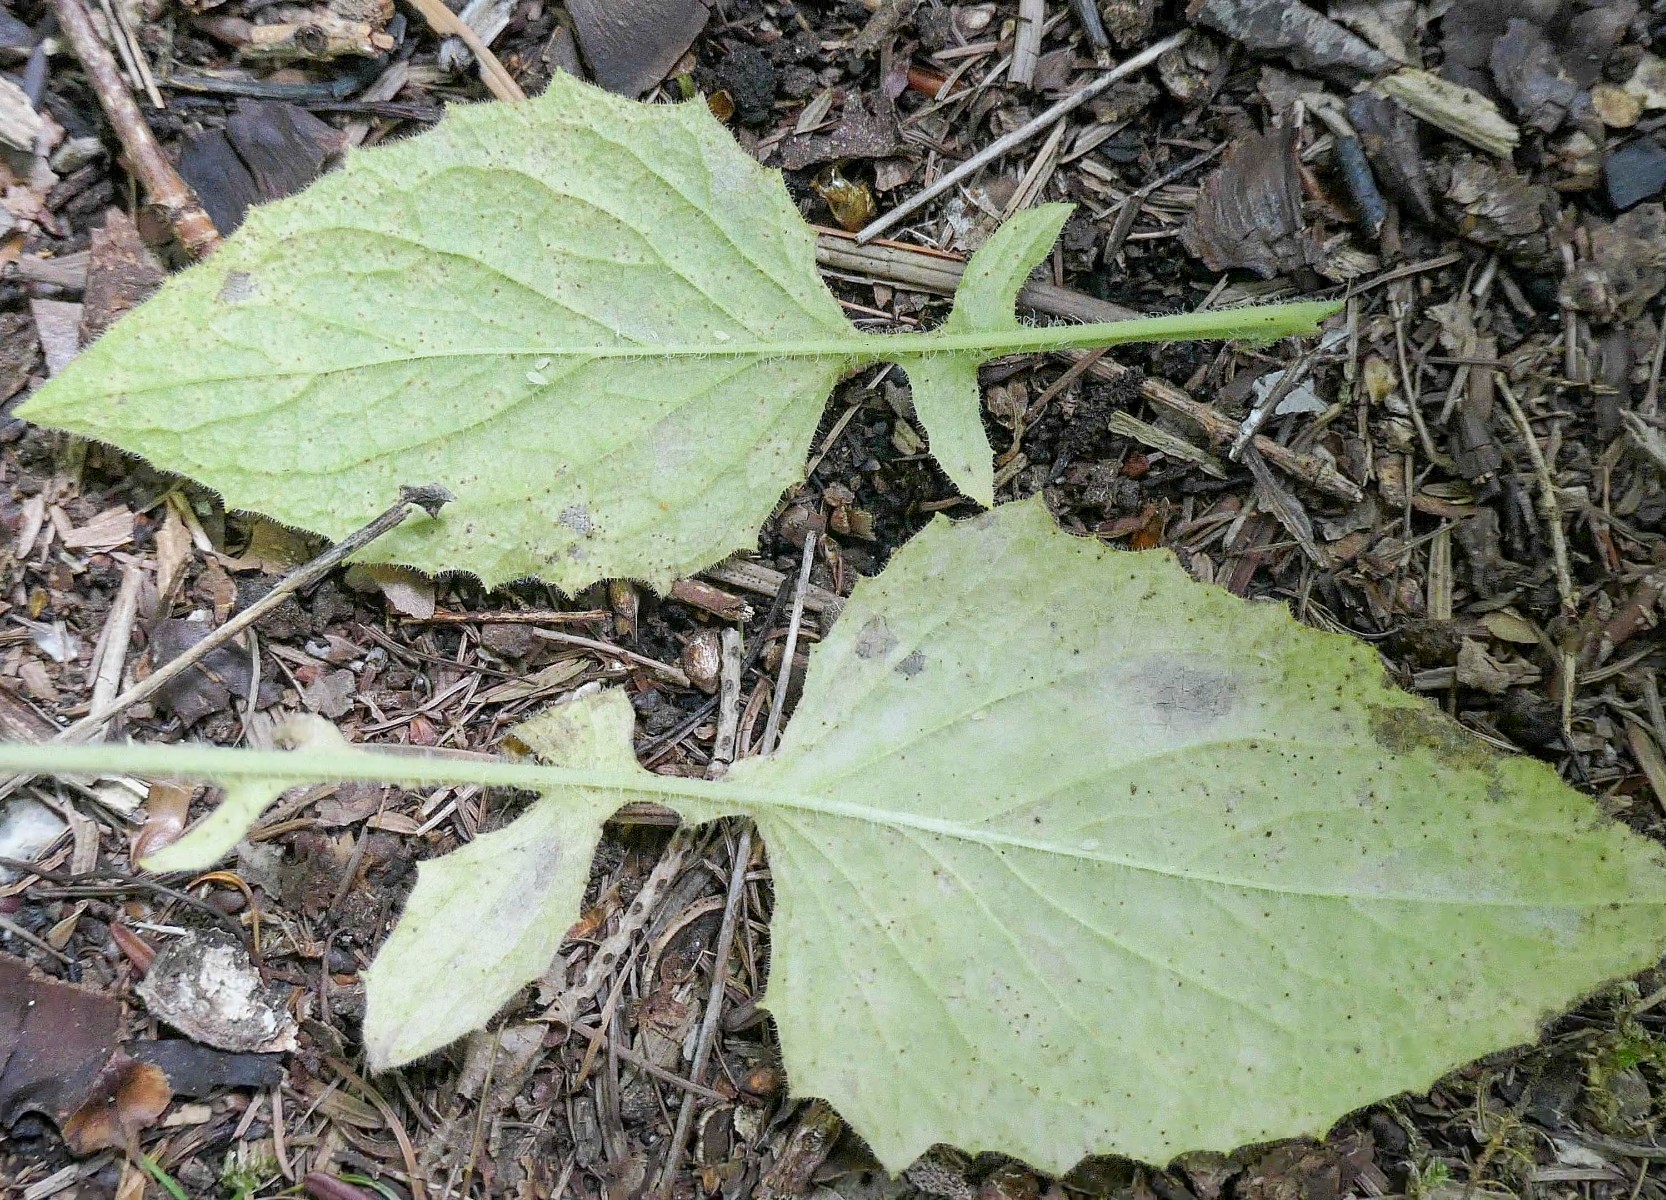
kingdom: Fungi
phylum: Basidiomycota
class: Pucciniomycetes
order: Pucciniales
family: Pucciniaceae
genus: Puccinia
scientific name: Puccinia lapsanae
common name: Nipplewort rust
